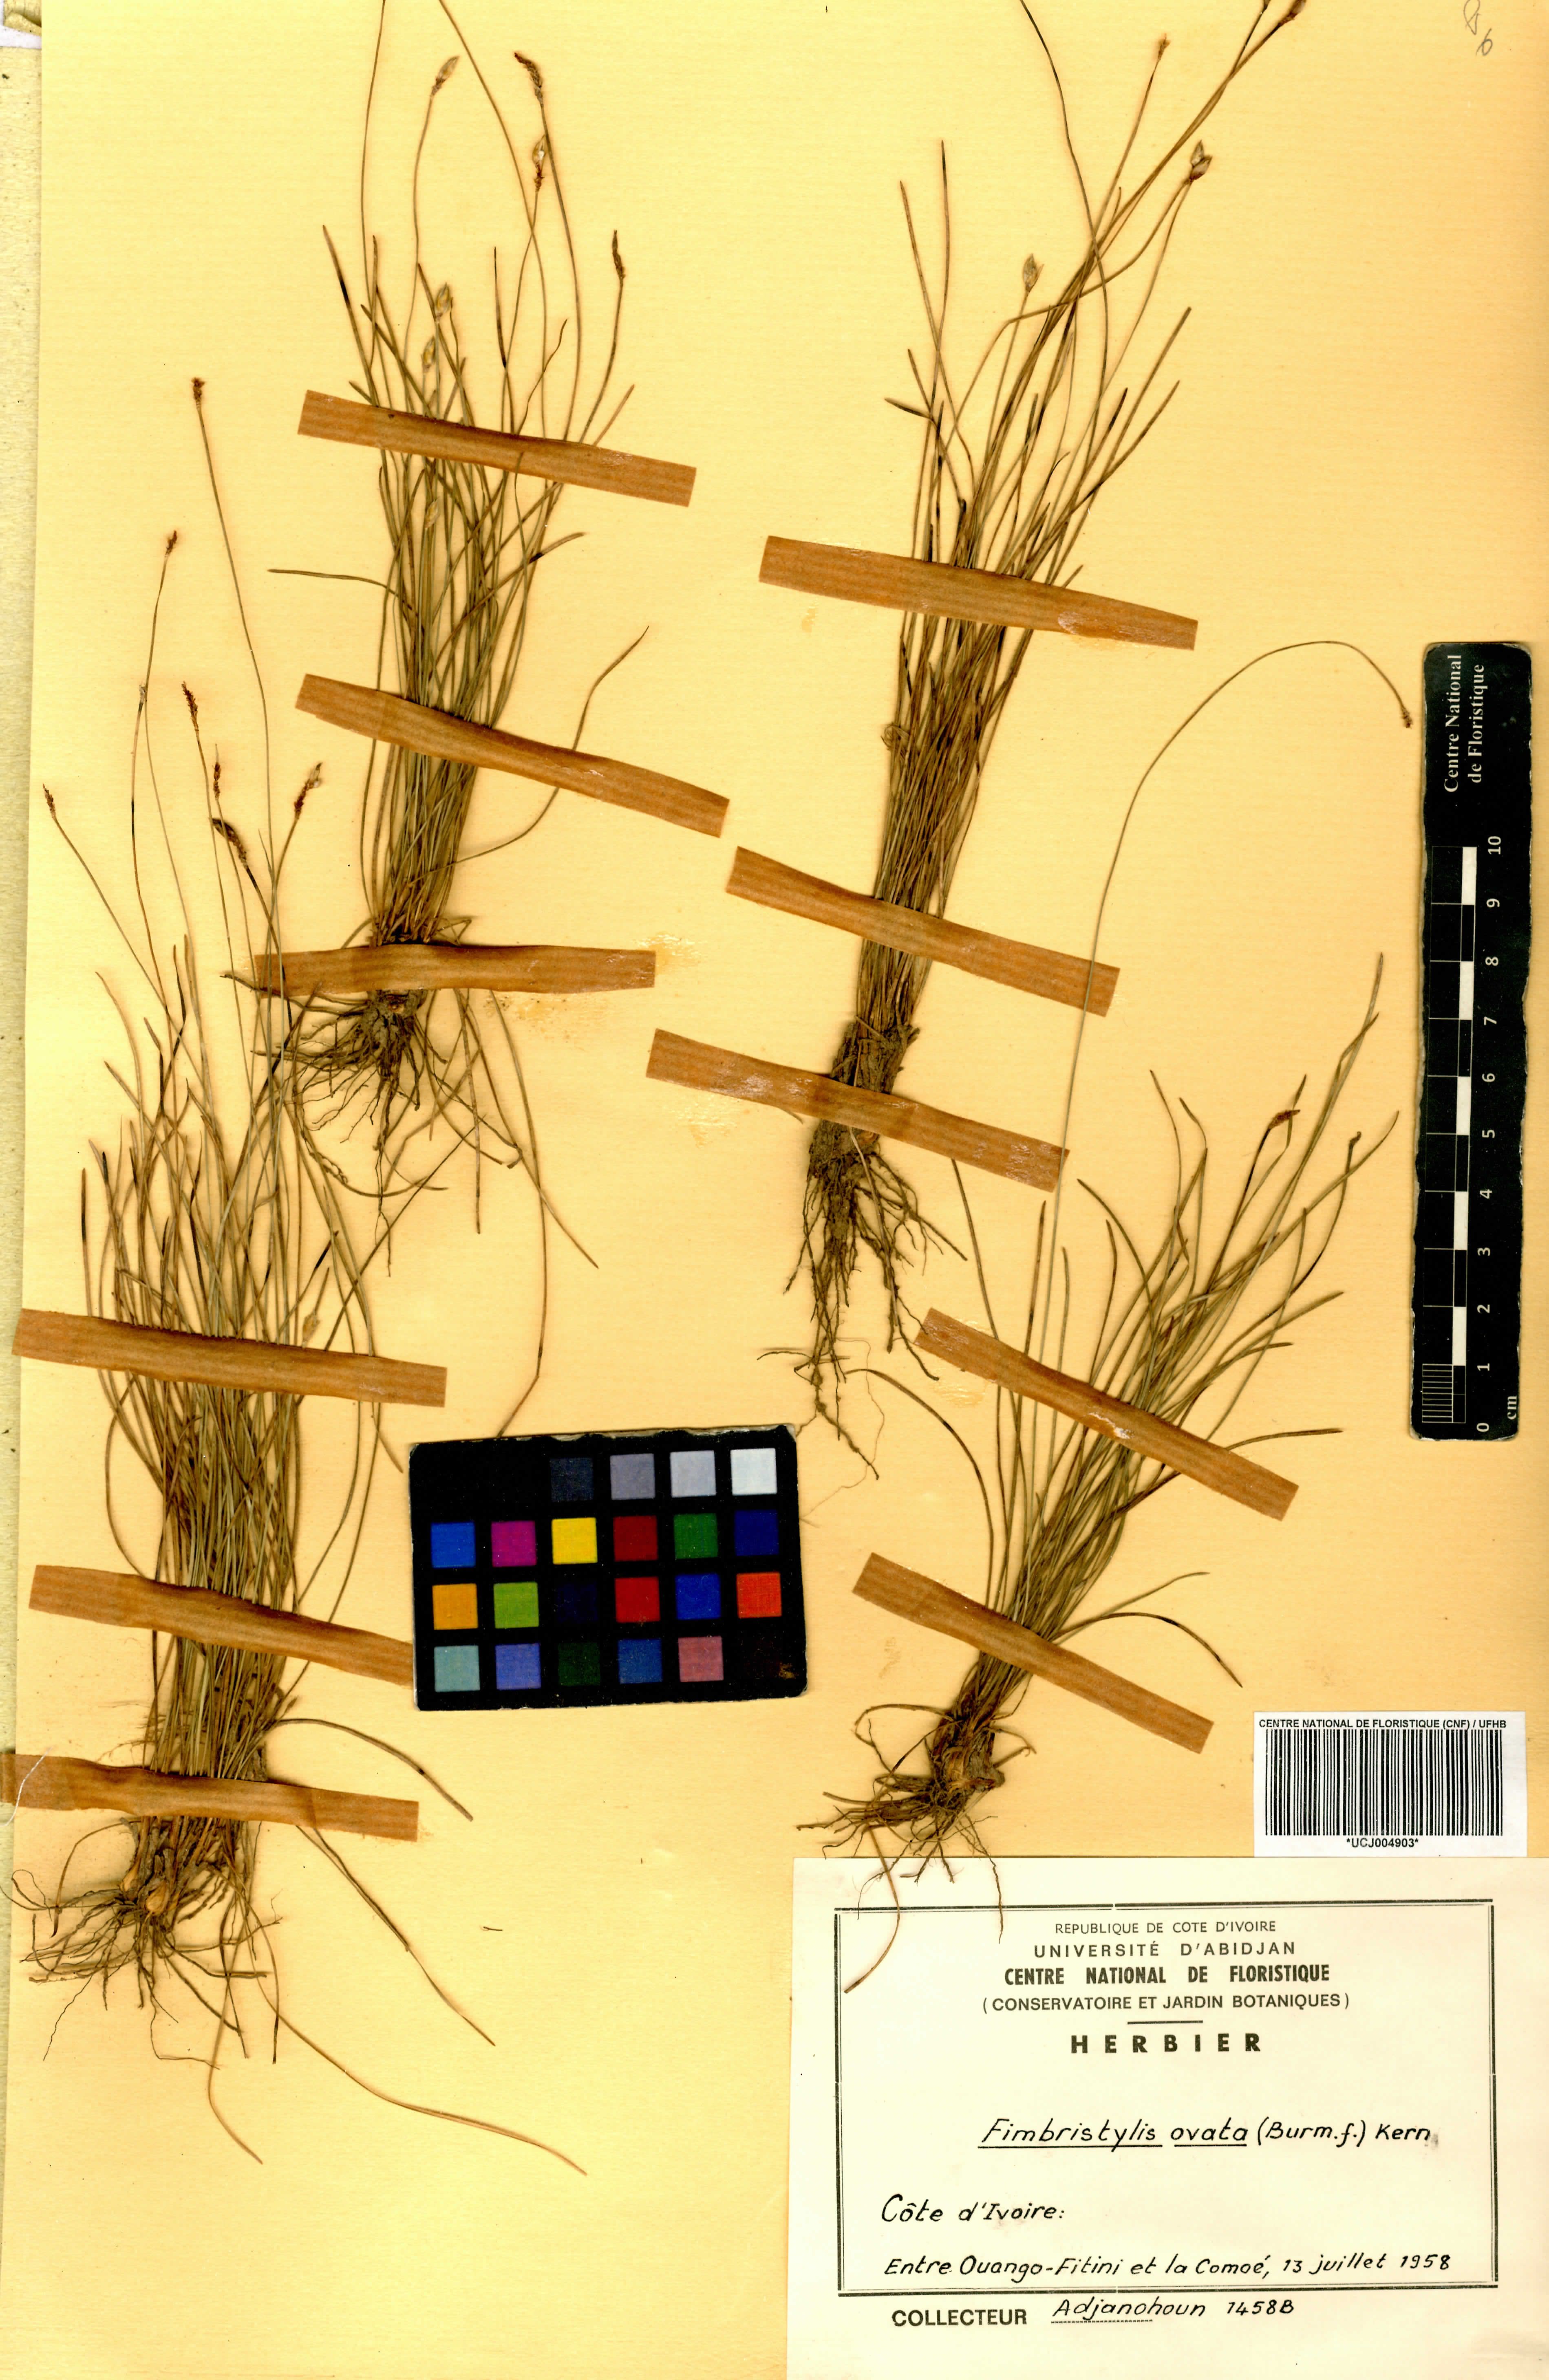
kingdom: Plantae
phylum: Tracheophyta
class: Liliopsida
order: Poales
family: Cyperaceae
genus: Abildgaardia
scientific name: Abildgaardia ovata
